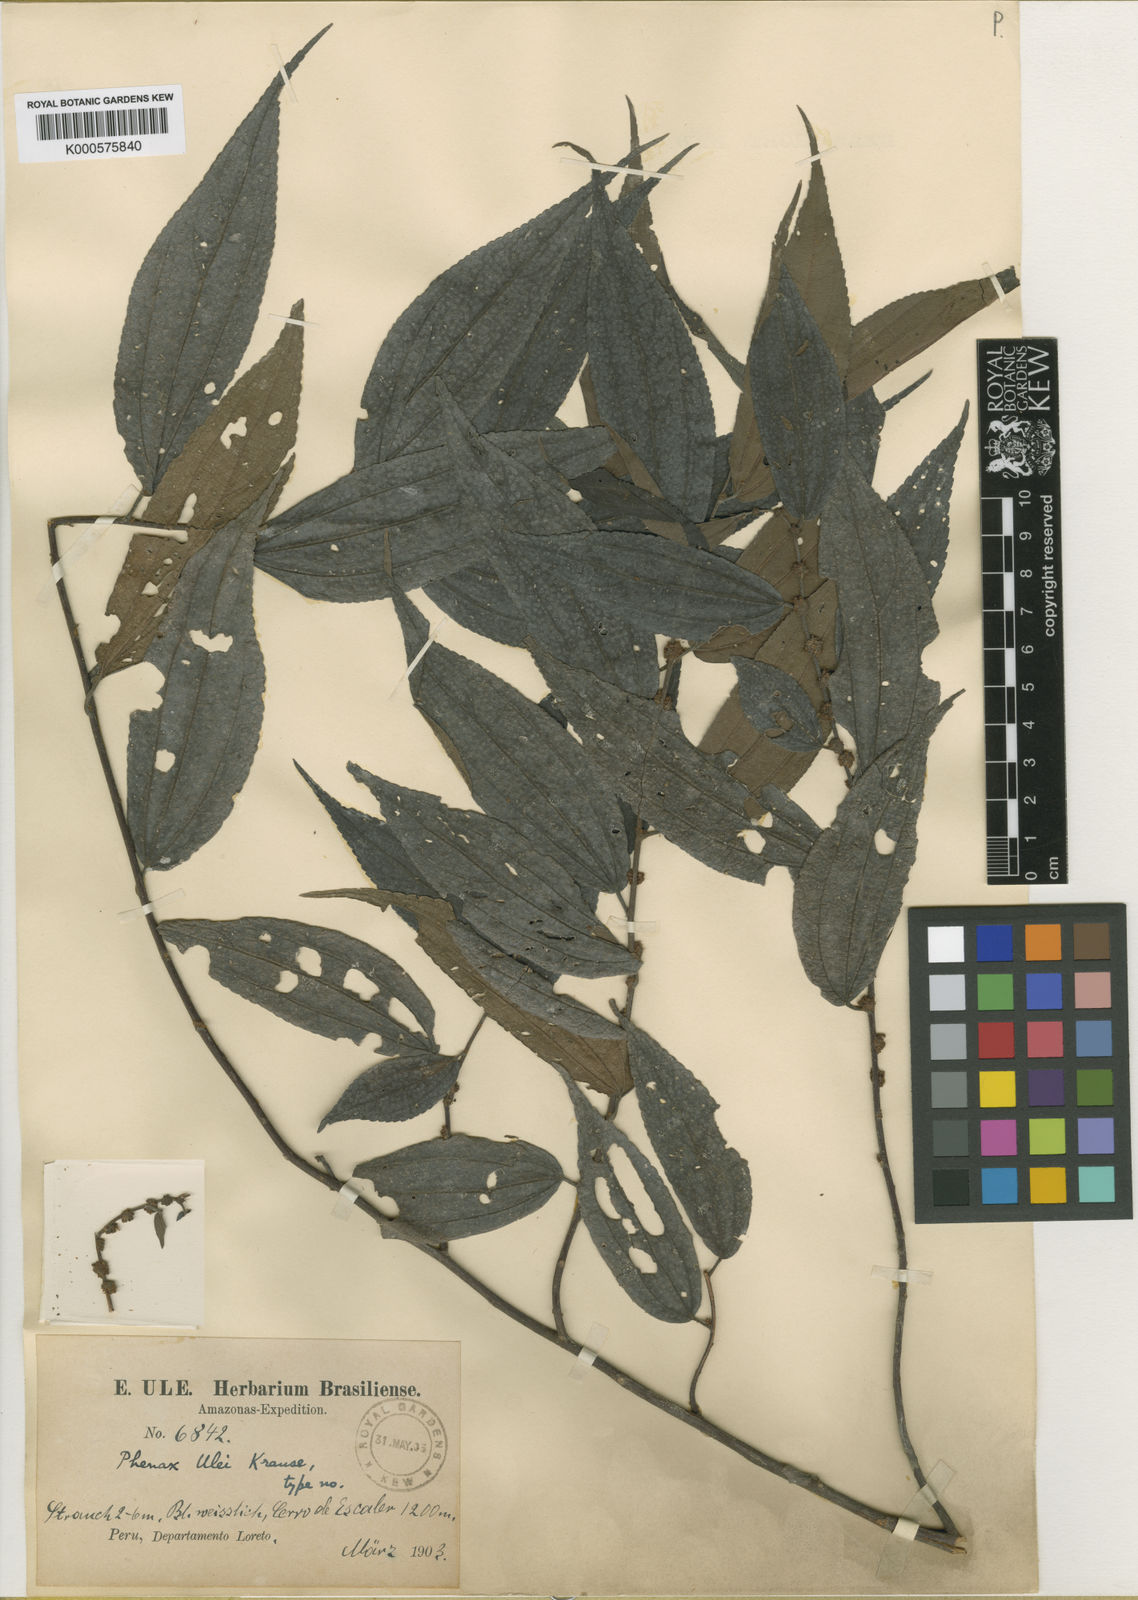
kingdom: Plantae
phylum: Tracheophyta
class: Magnoliopsida
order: Rosales
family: Urticaceae
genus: Phenax
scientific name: Phenax
